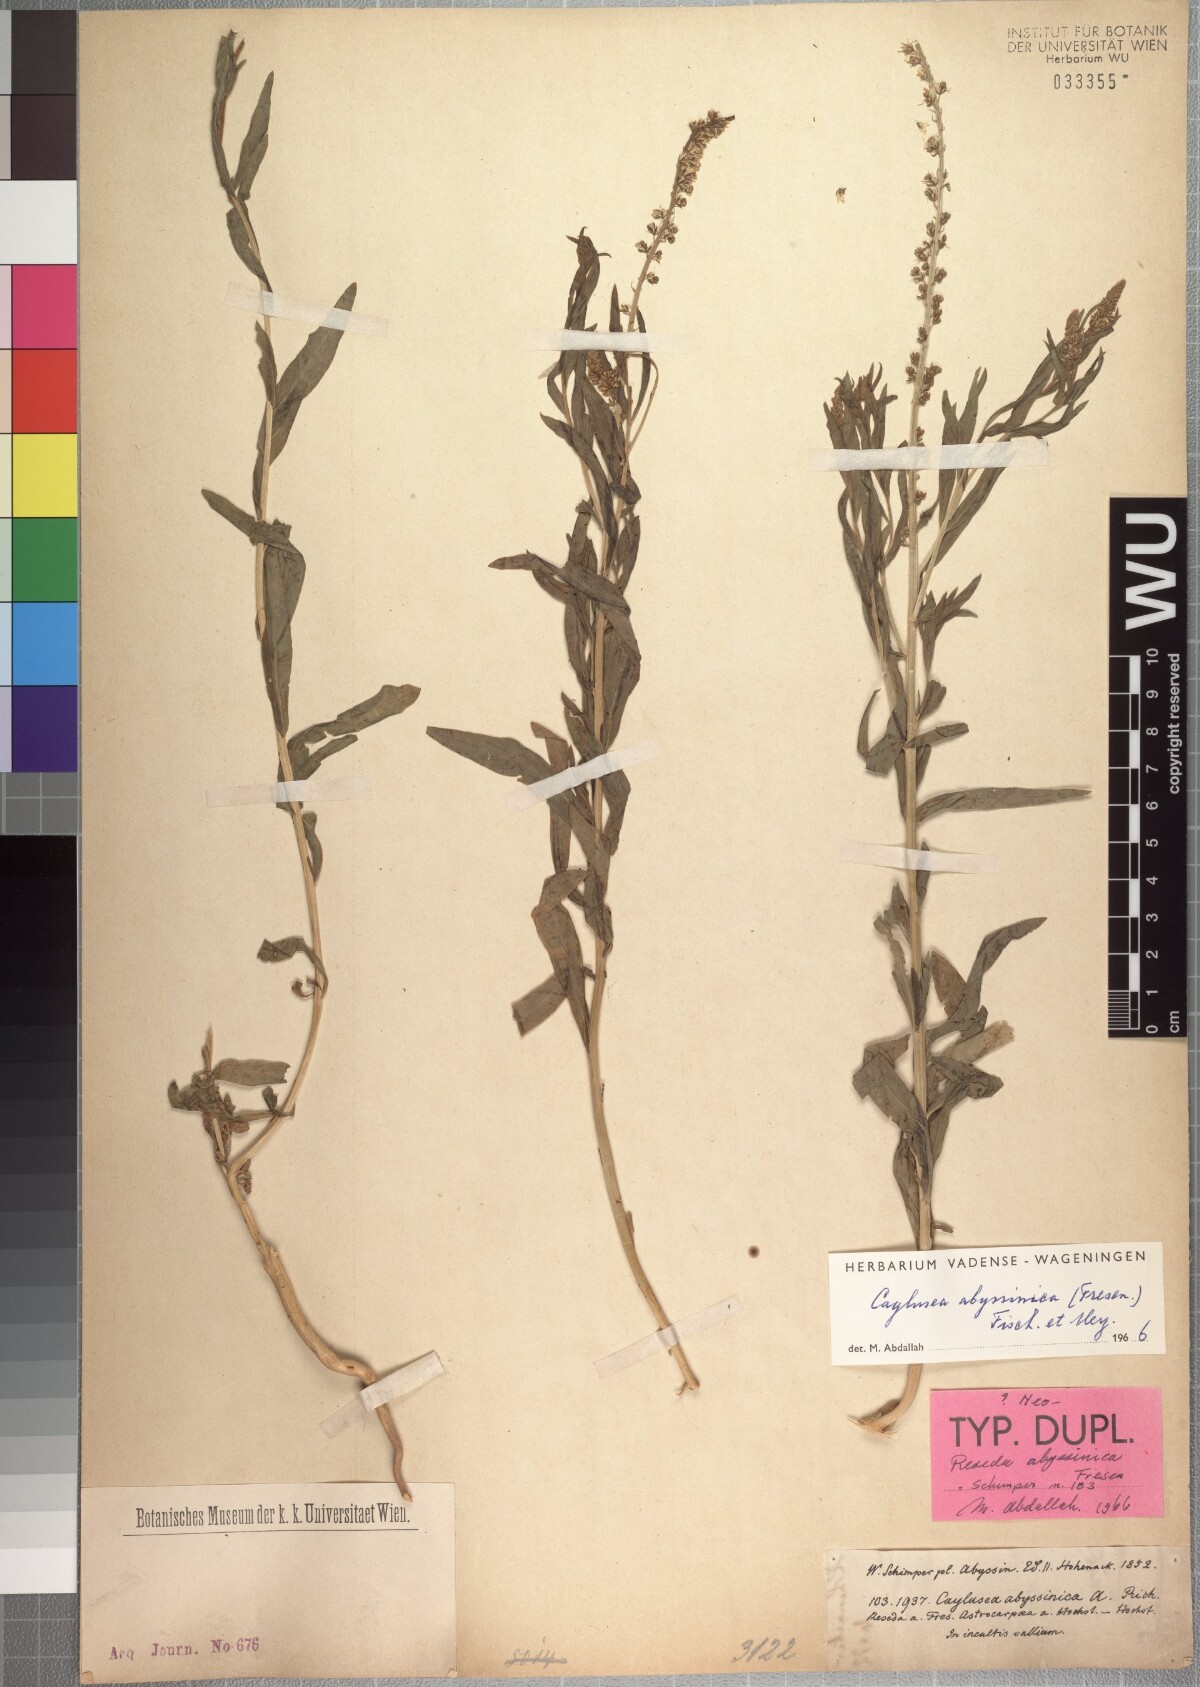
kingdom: Plantae
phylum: Tracheophyta
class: Magnoliopsida
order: Brassicales
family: Resedaceae
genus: Caylusea
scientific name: Caylusea abyssinica
